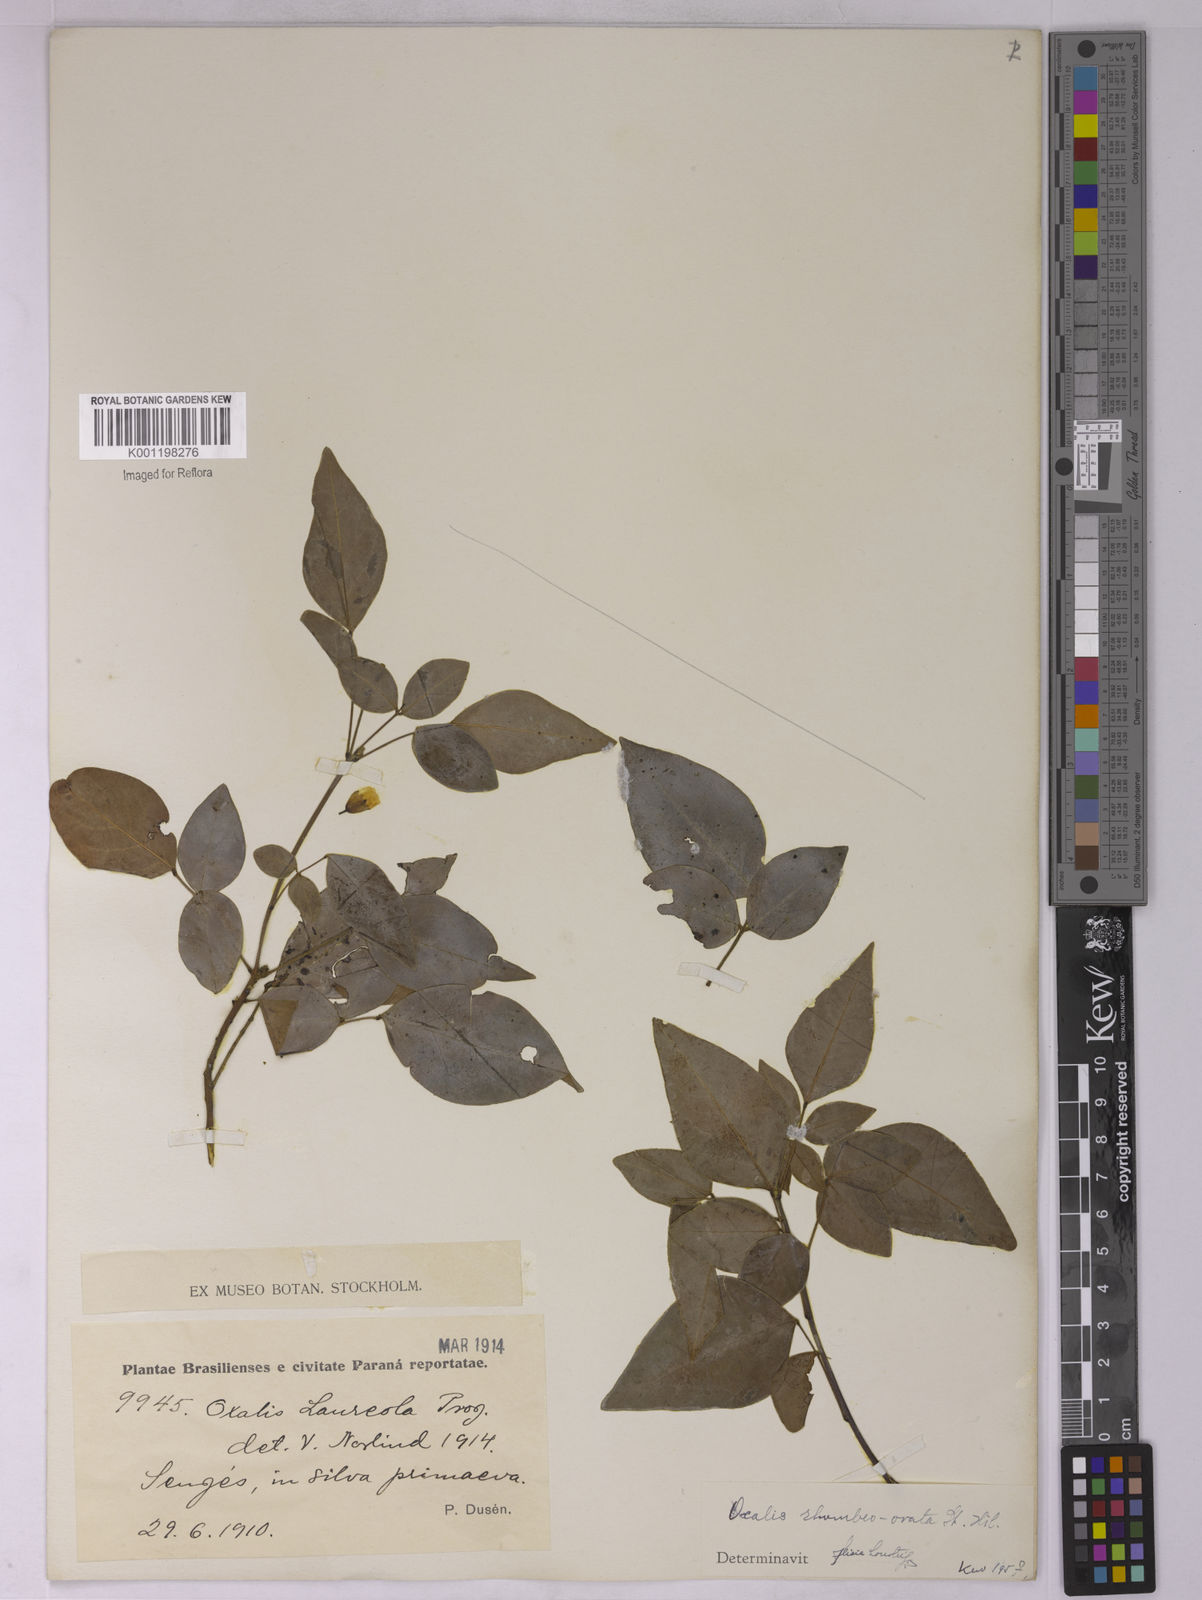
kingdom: Plantae
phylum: Tracheophyta
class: Magnoliopsida
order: Oxalidales
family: Oxalidaceae
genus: Oxalis
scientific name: Oxalis rhombeo-ovata
